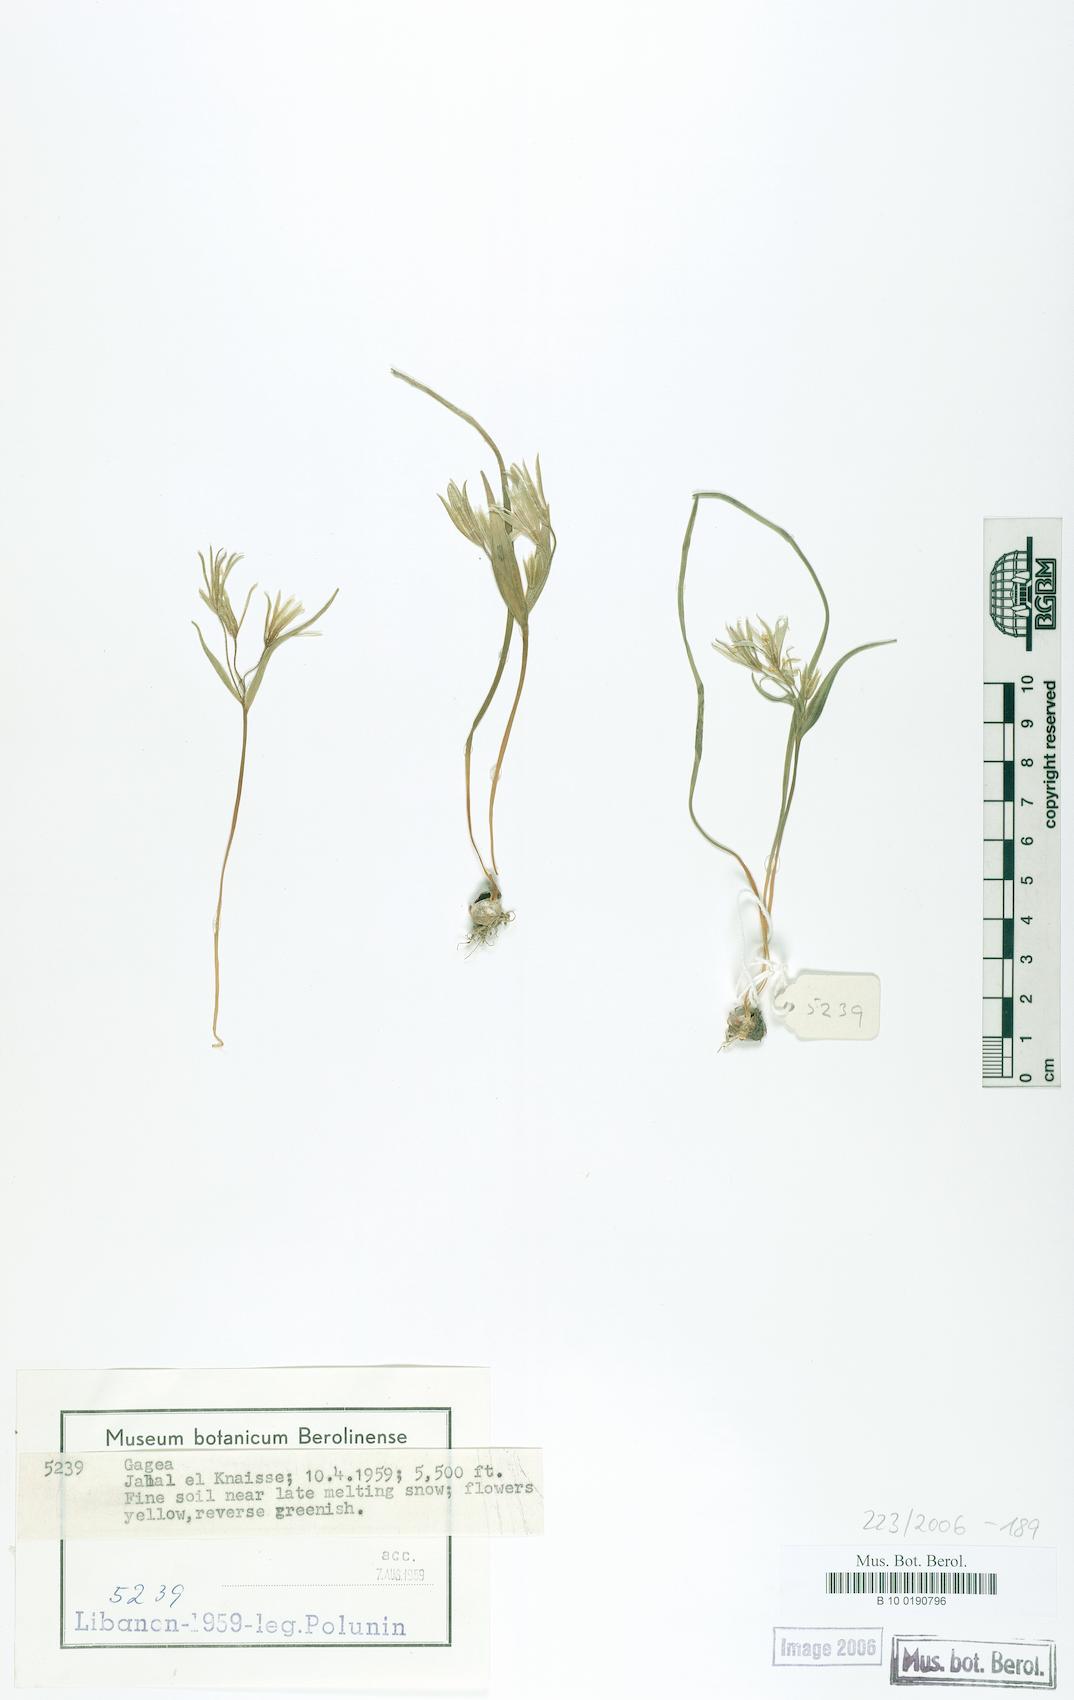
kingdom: Plantae
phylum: Tracheophyta
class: Liliopsida
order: Liliales
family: Liliaceae
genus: Gagea
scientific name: Gagea
